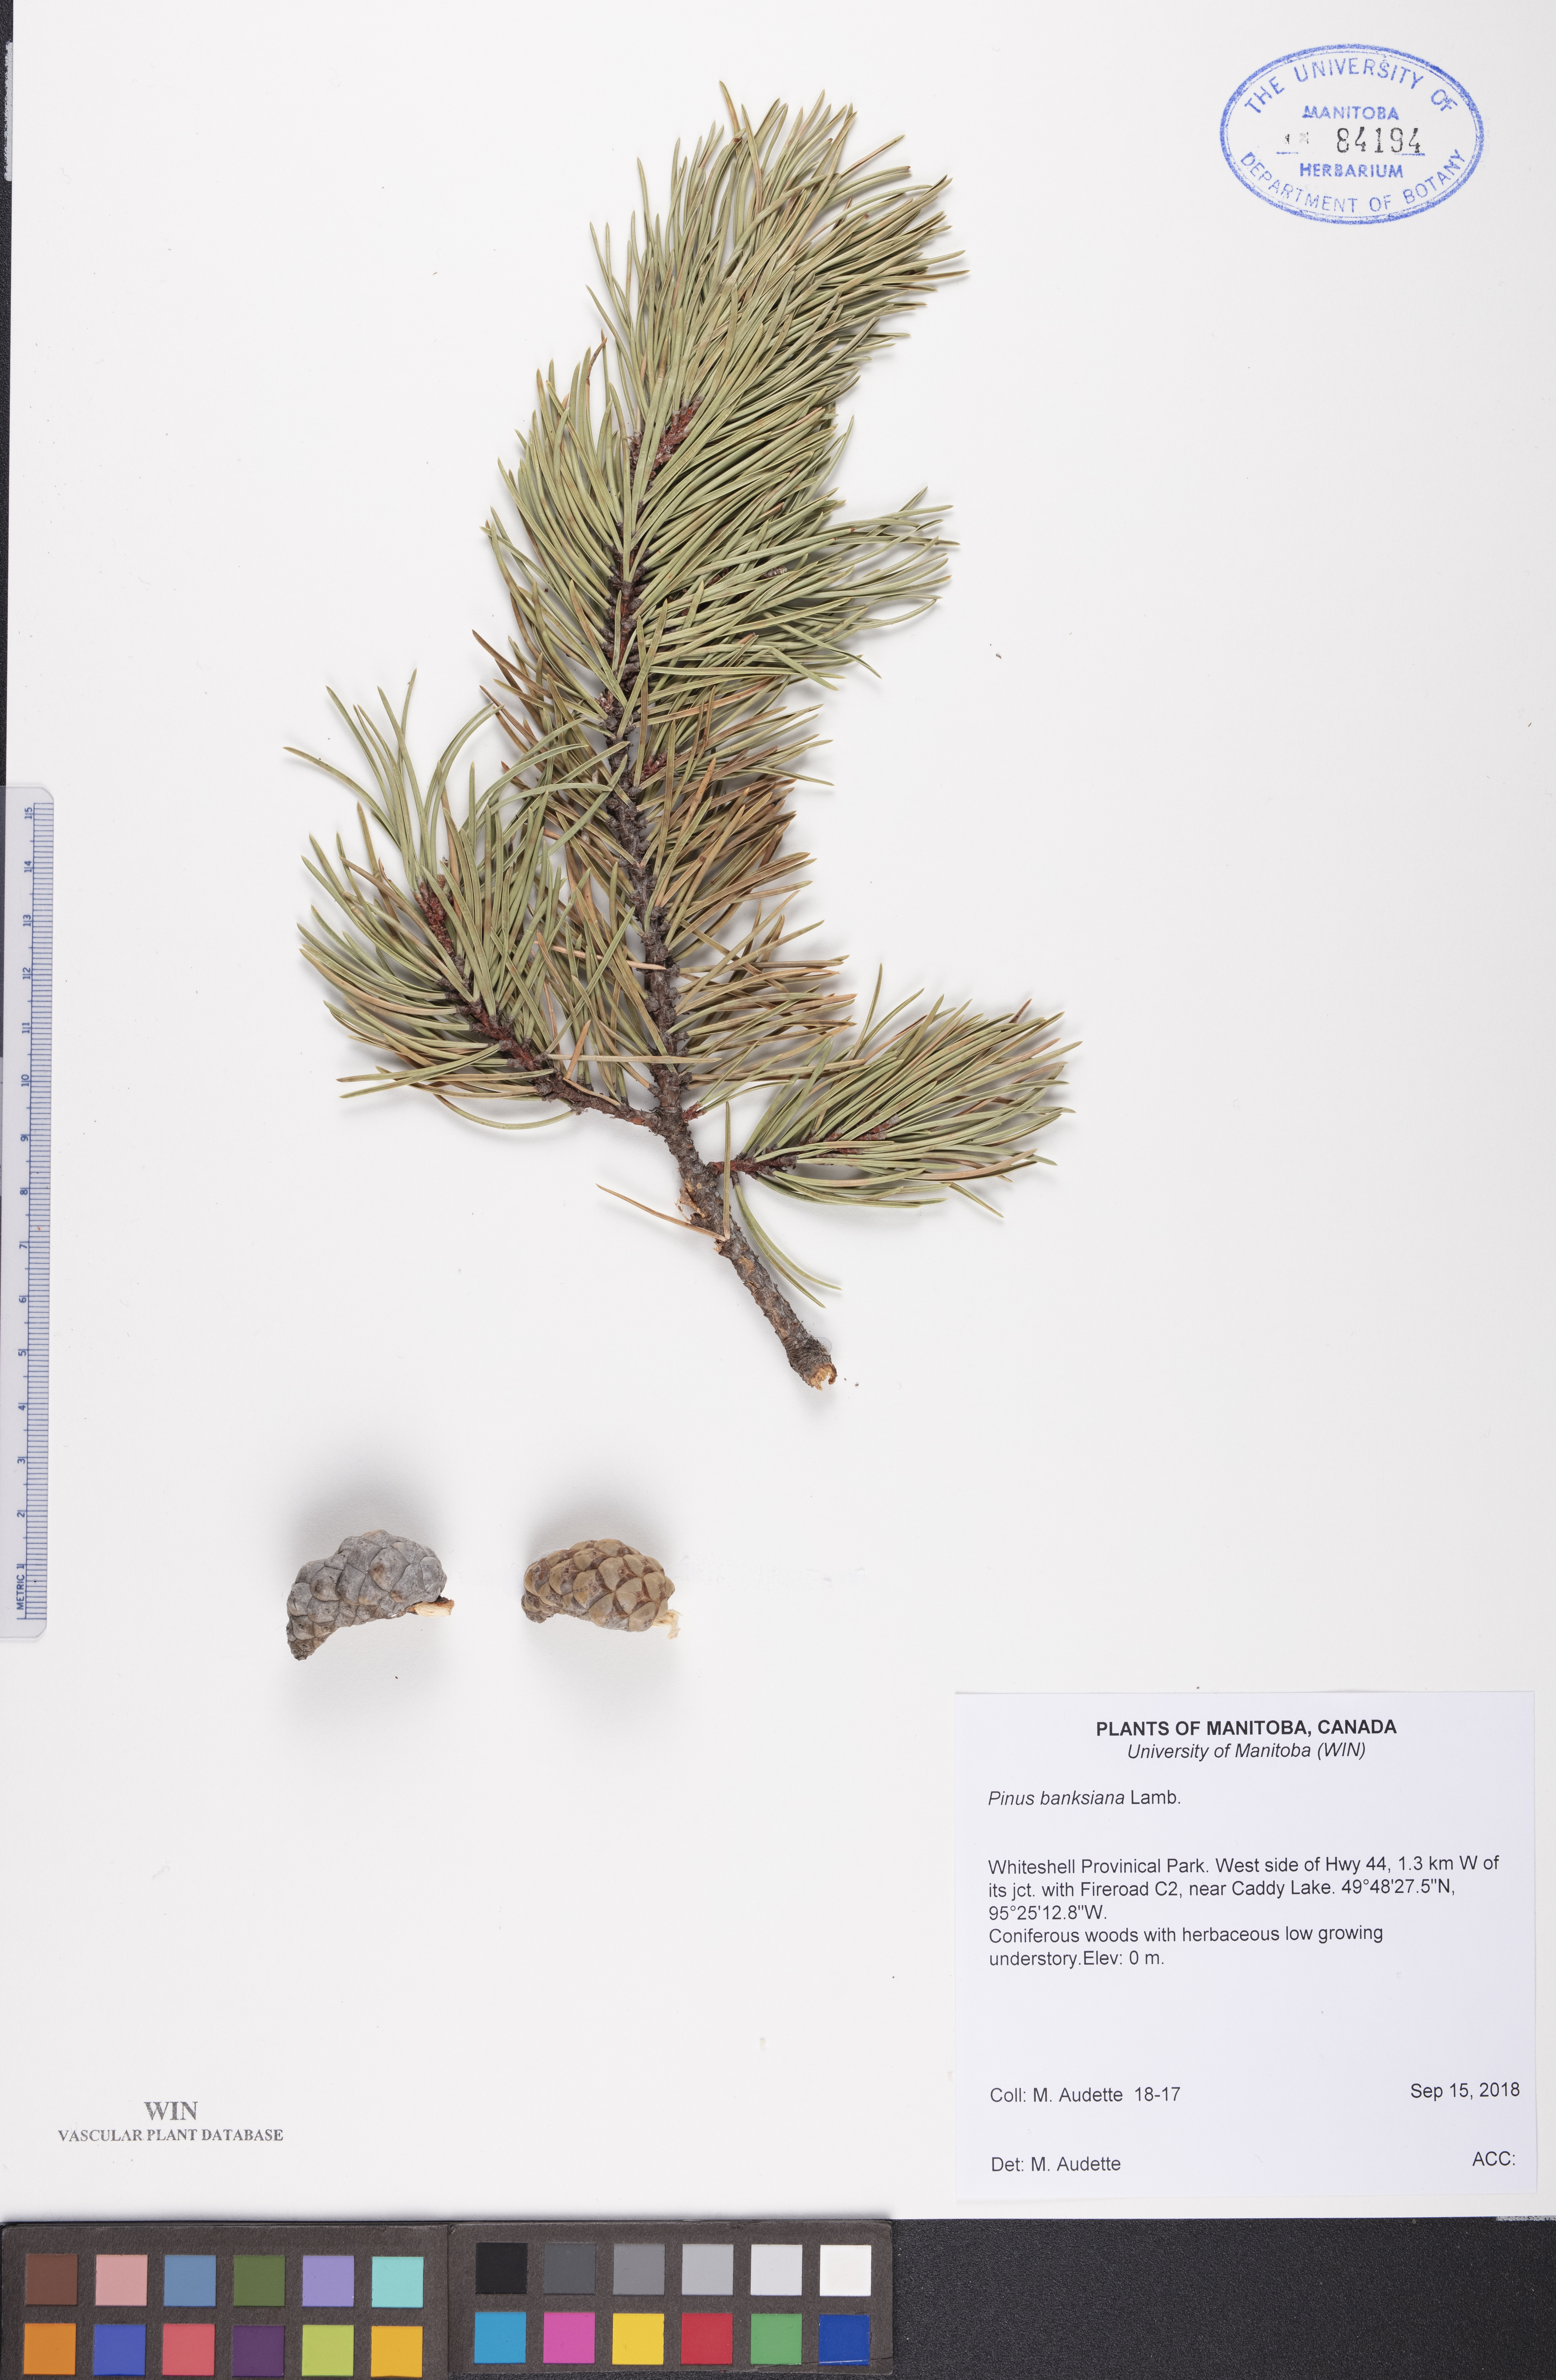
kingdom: Plantae
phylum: Tracheophyta
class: Pinopsida
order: Pinales
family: Pinaceae
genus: Pinus
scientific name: Pinus banksiana
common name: Jack pine
